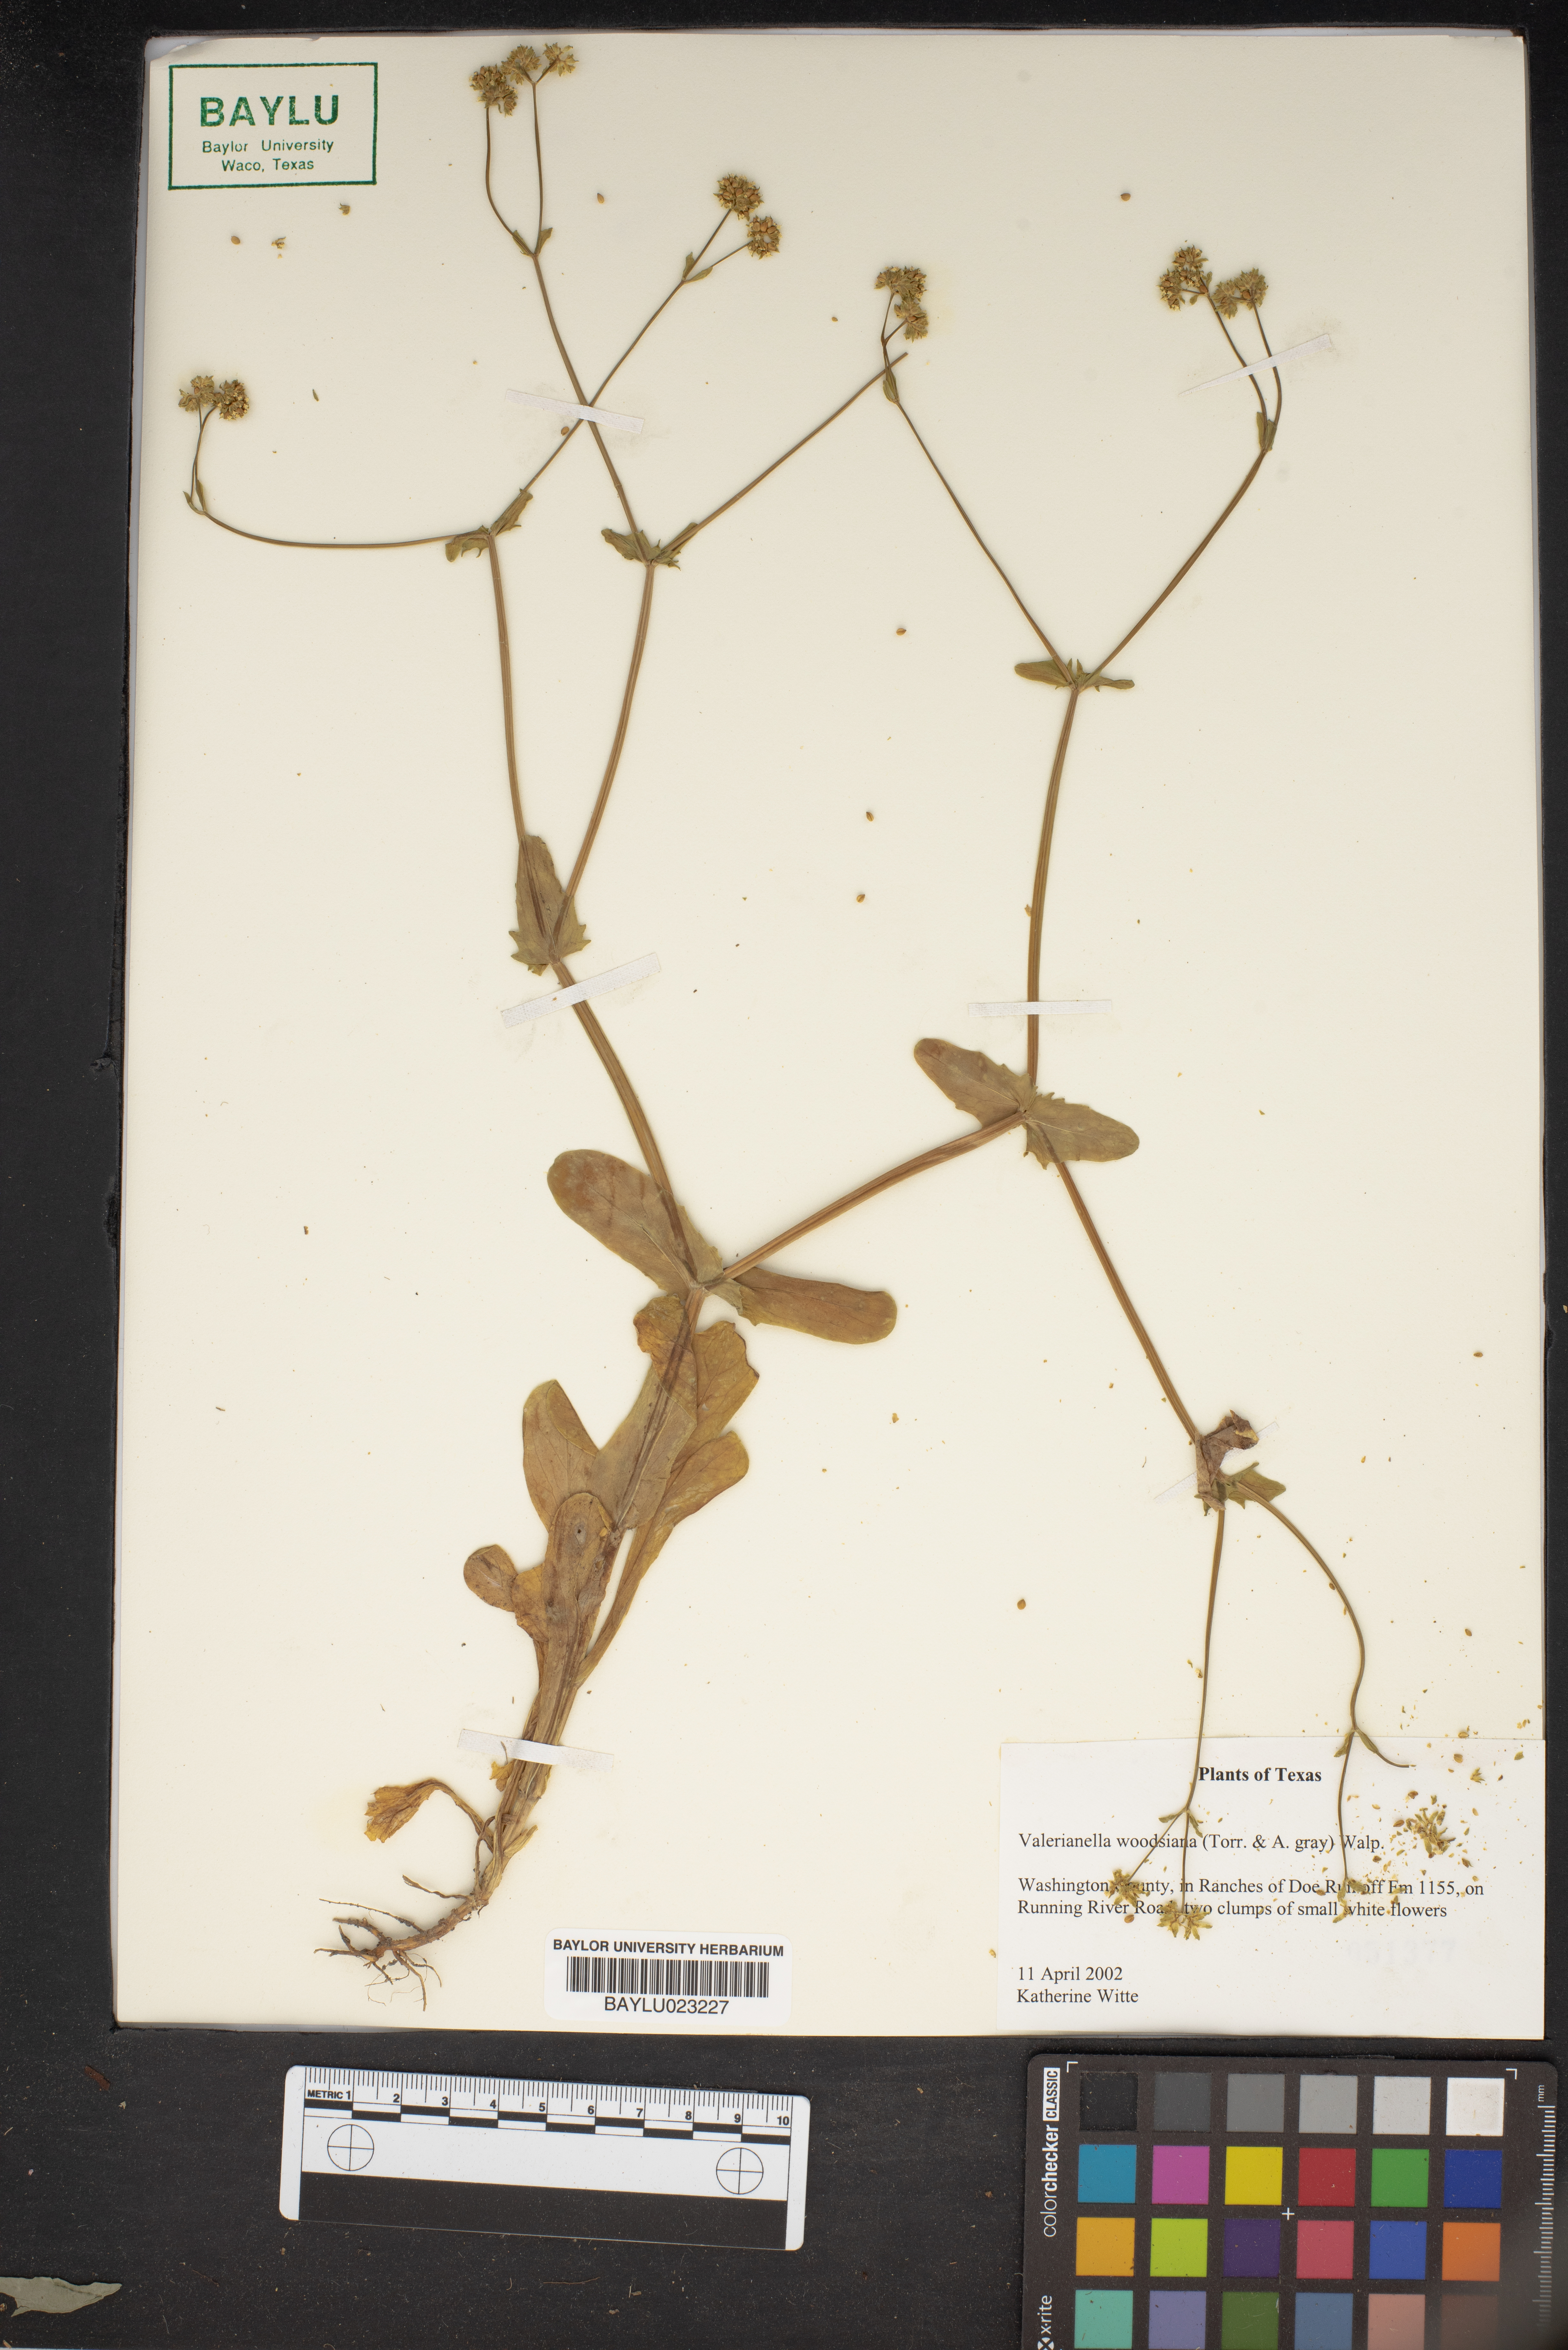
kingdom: Plantae
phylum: Tracheophyta
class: Magnoliopsida
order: Dipsacales
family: Caprifoliaceae
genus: Valerianella
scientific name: Valerianella radiata
